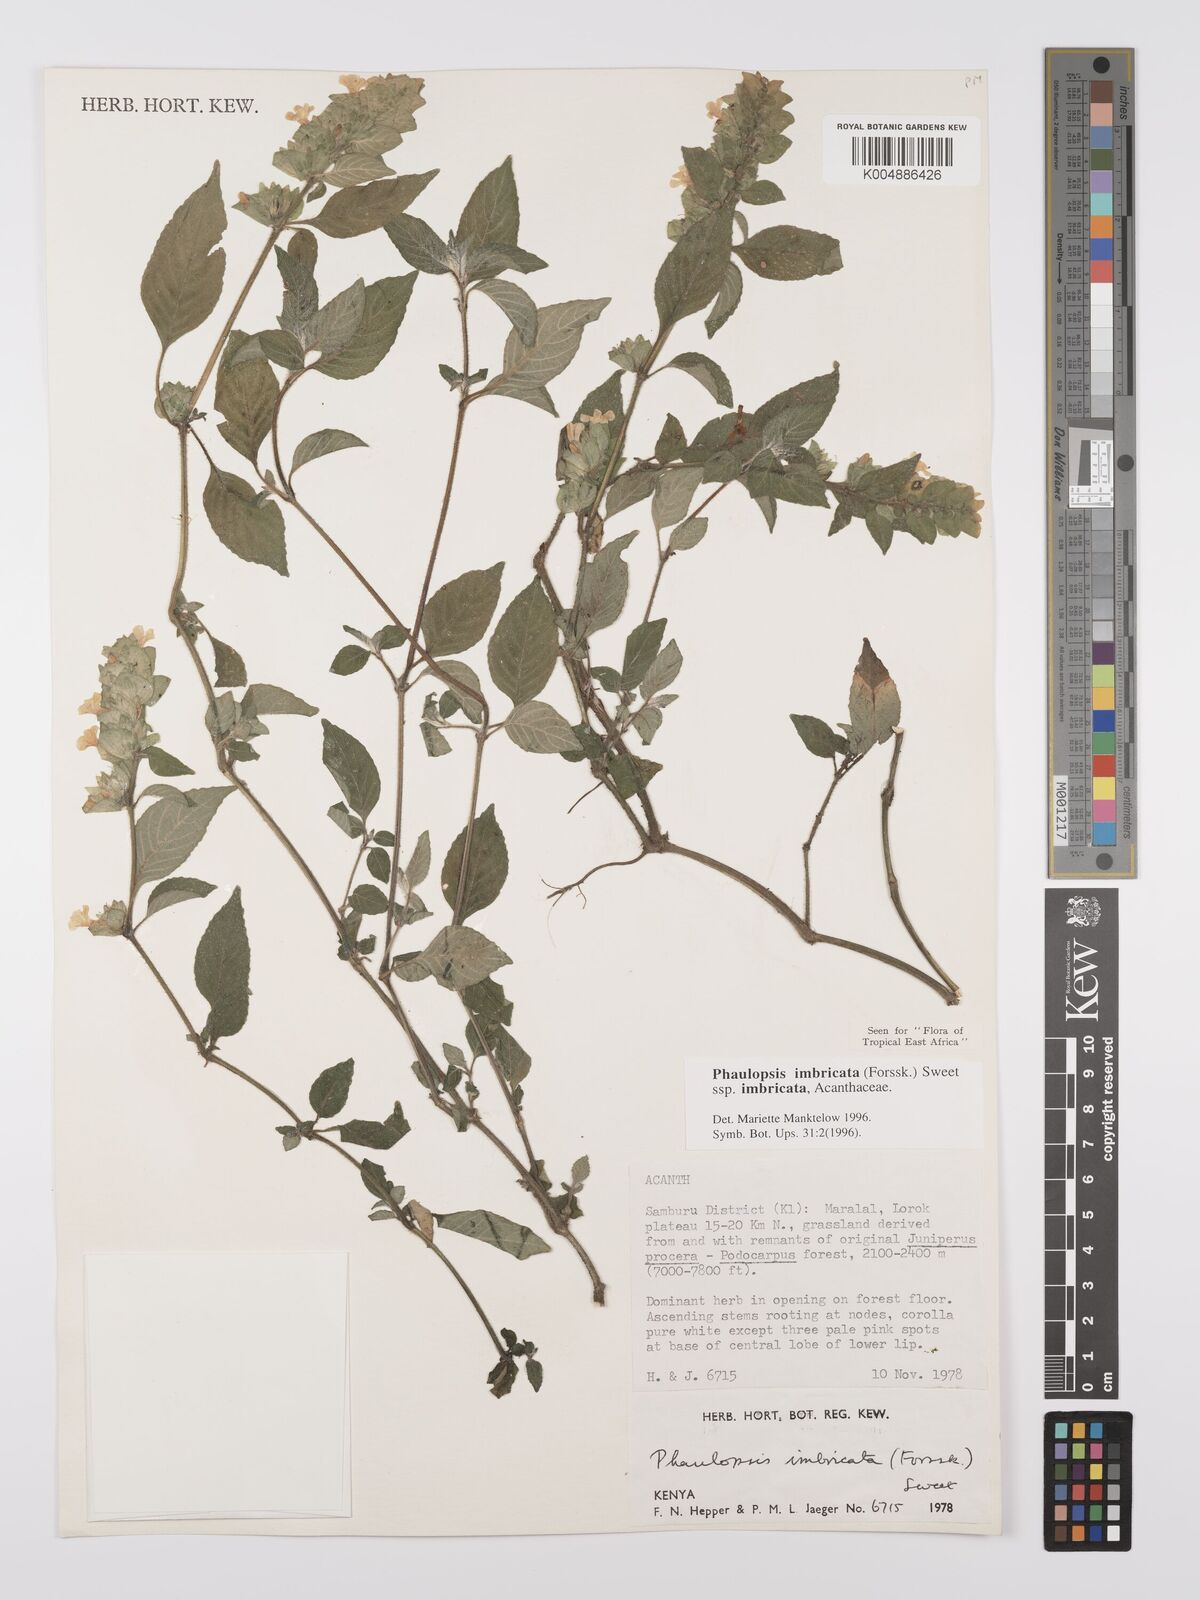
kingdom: Plantae
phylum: Tracheophyta
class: Magnoliopsida
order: Lamiales
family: Acanthaceae
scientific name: Acanthaceae
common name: Acanthaceae
